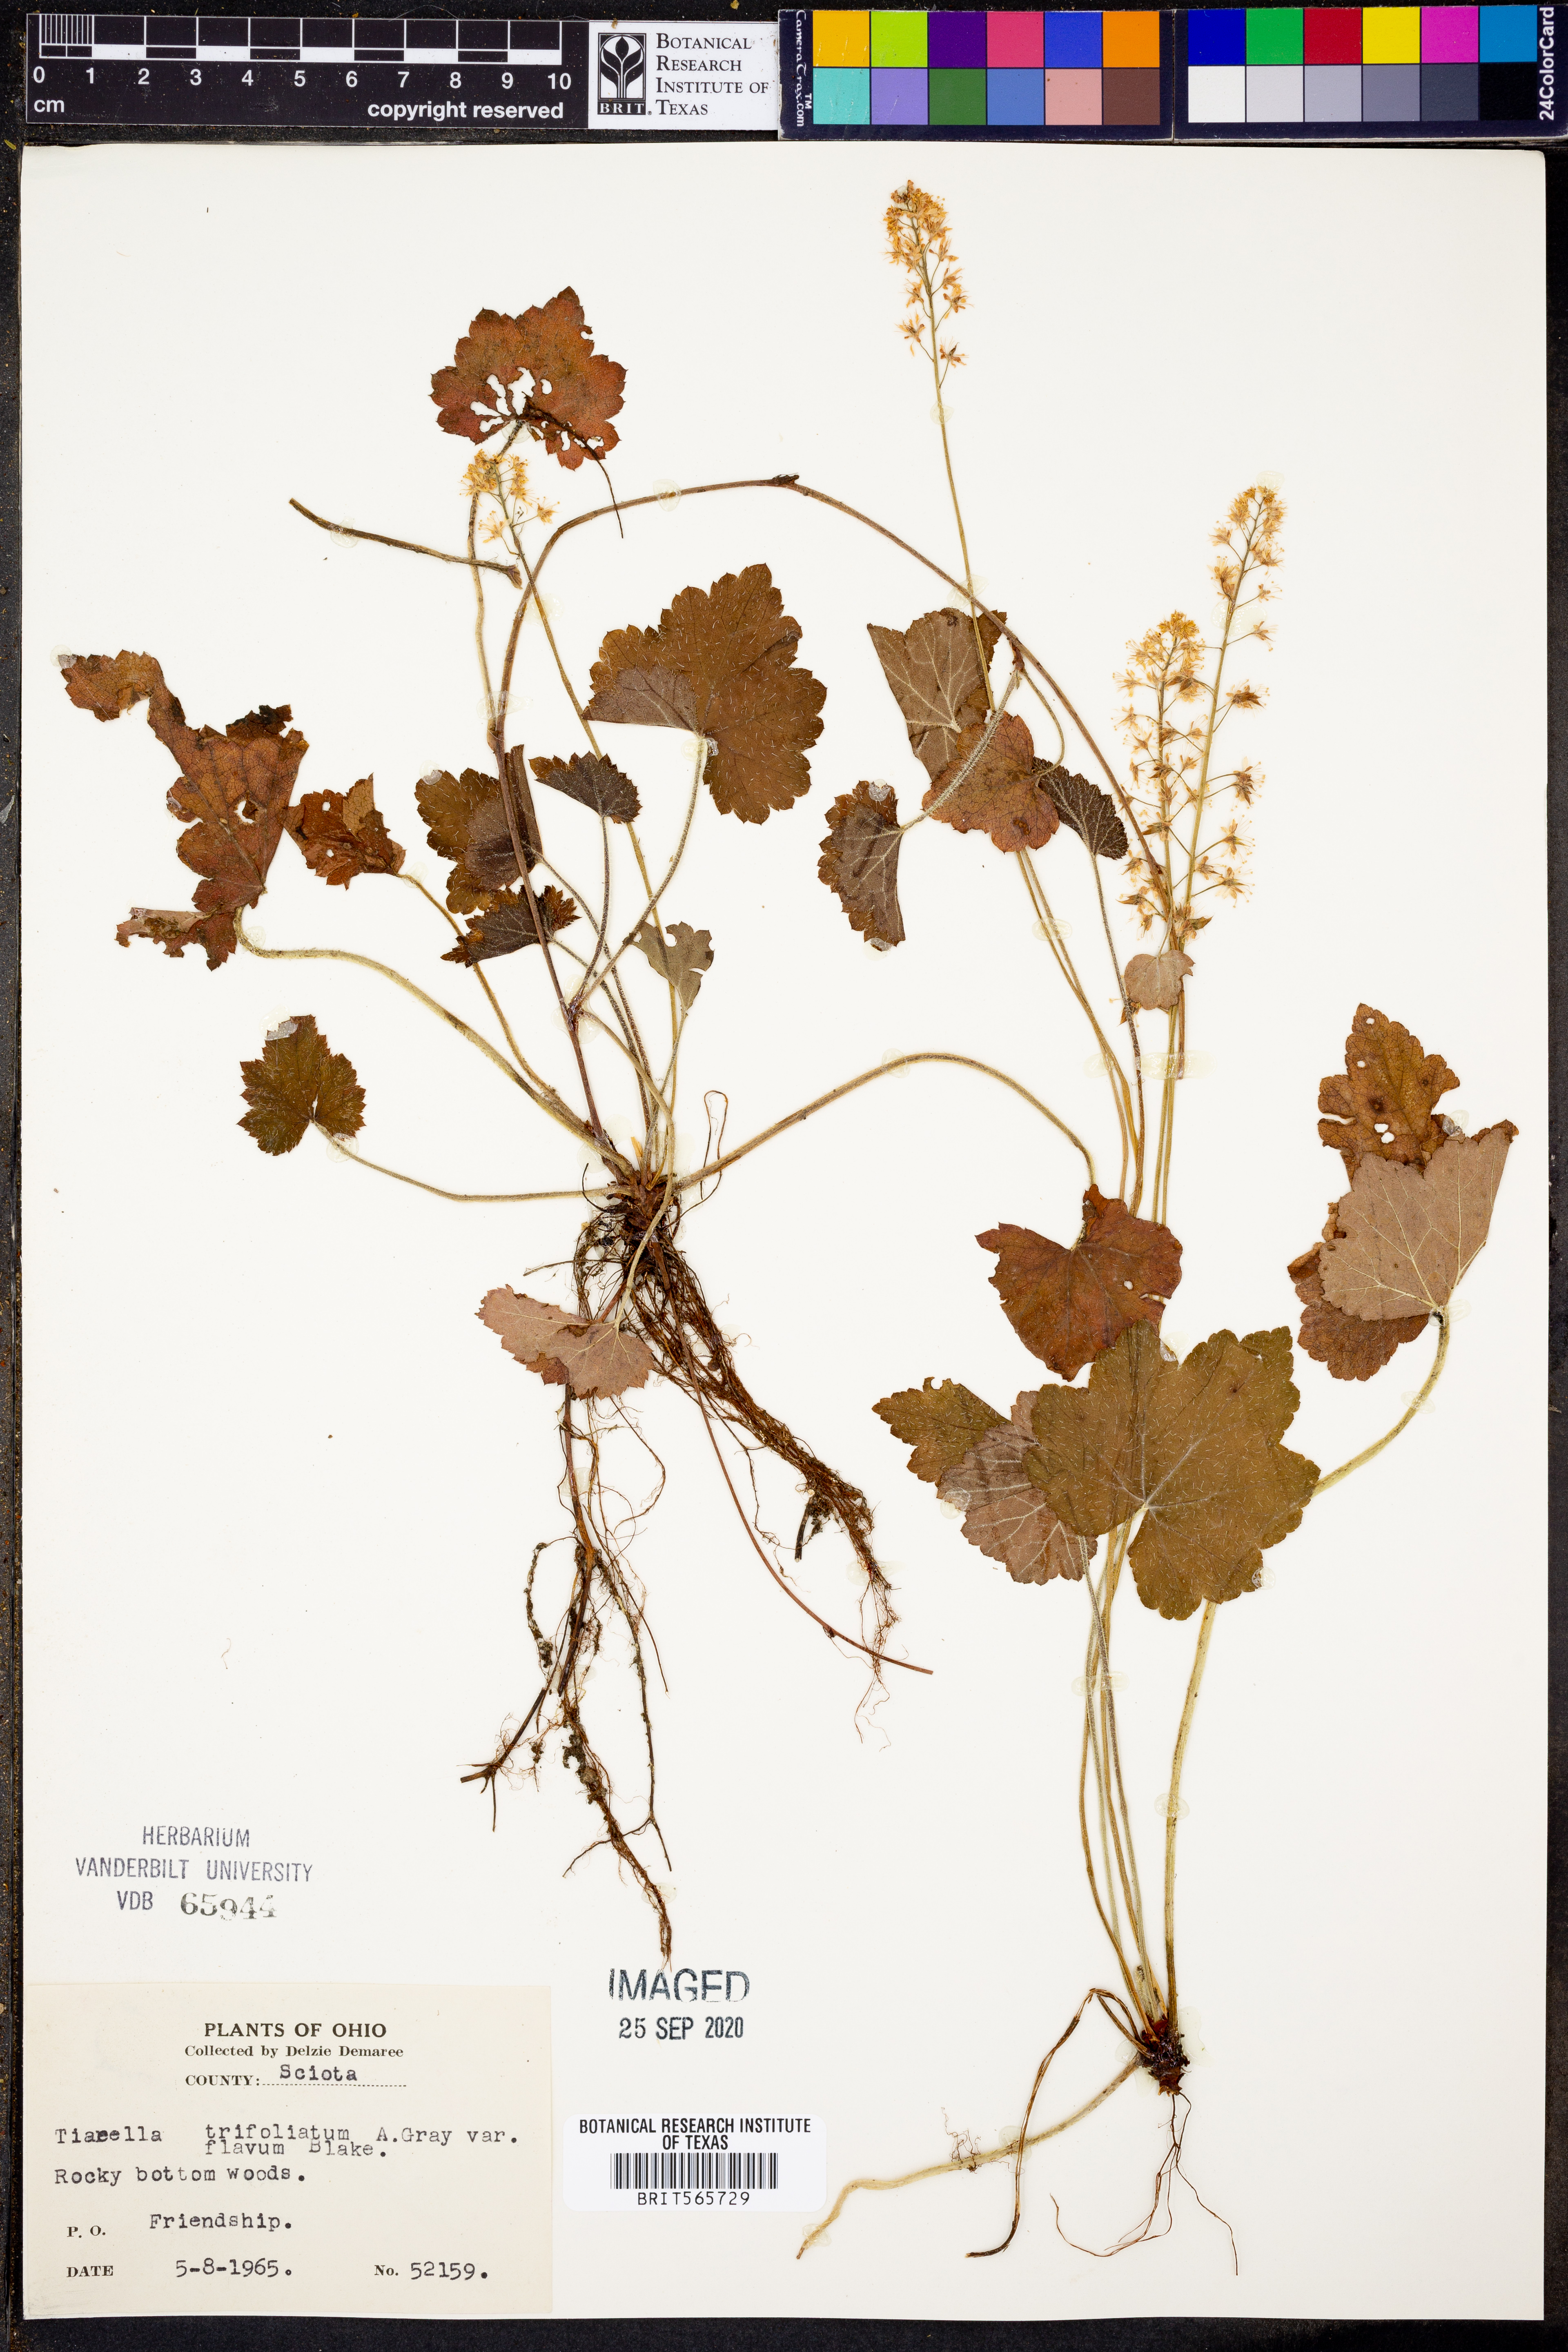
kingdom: Plantae
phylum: Tracheophyta
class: Magnoliopsida
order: Saxifragales
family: Saxifragaceae
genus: Tiarella
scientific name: Tiarella trifoliata
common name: Sugar-scoop
